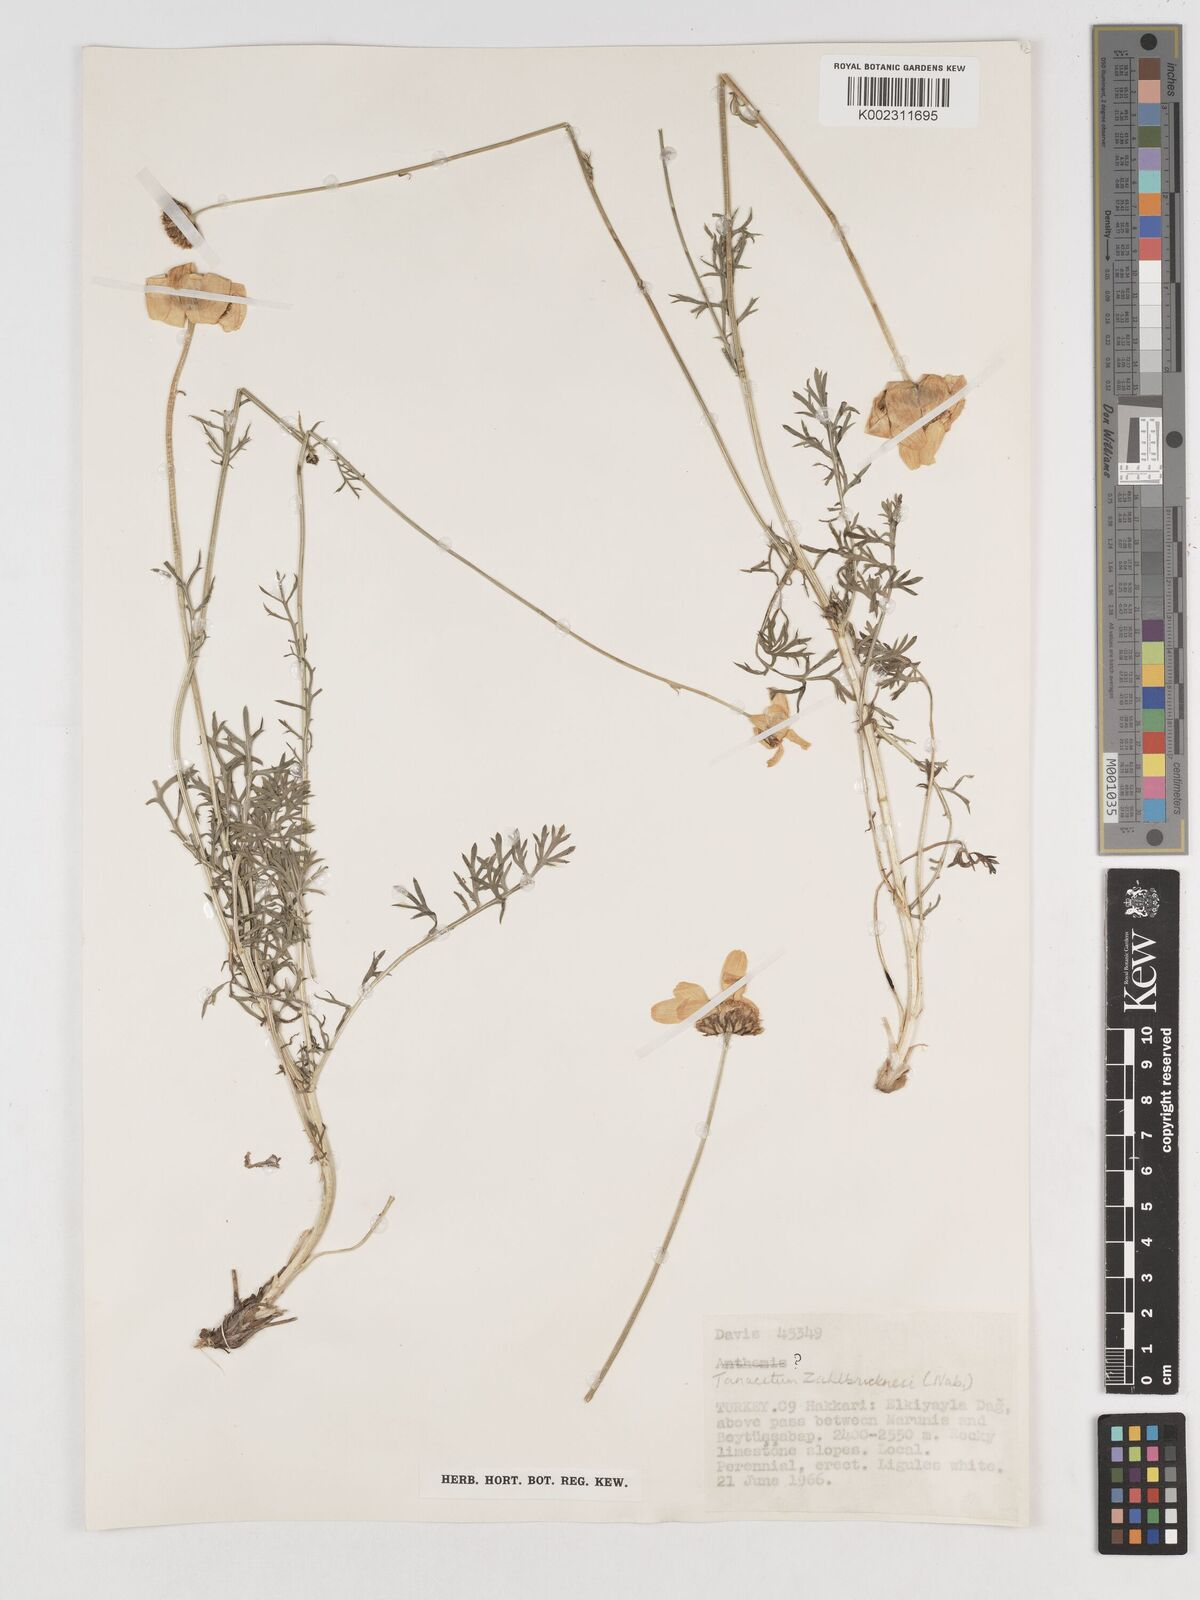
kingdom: Plantae
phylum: Tracheophyta
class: Magnoliopsida
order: Asterales
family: Asteraceae
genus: Tanacetum
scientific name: Tanacetum zahlbruckneri
